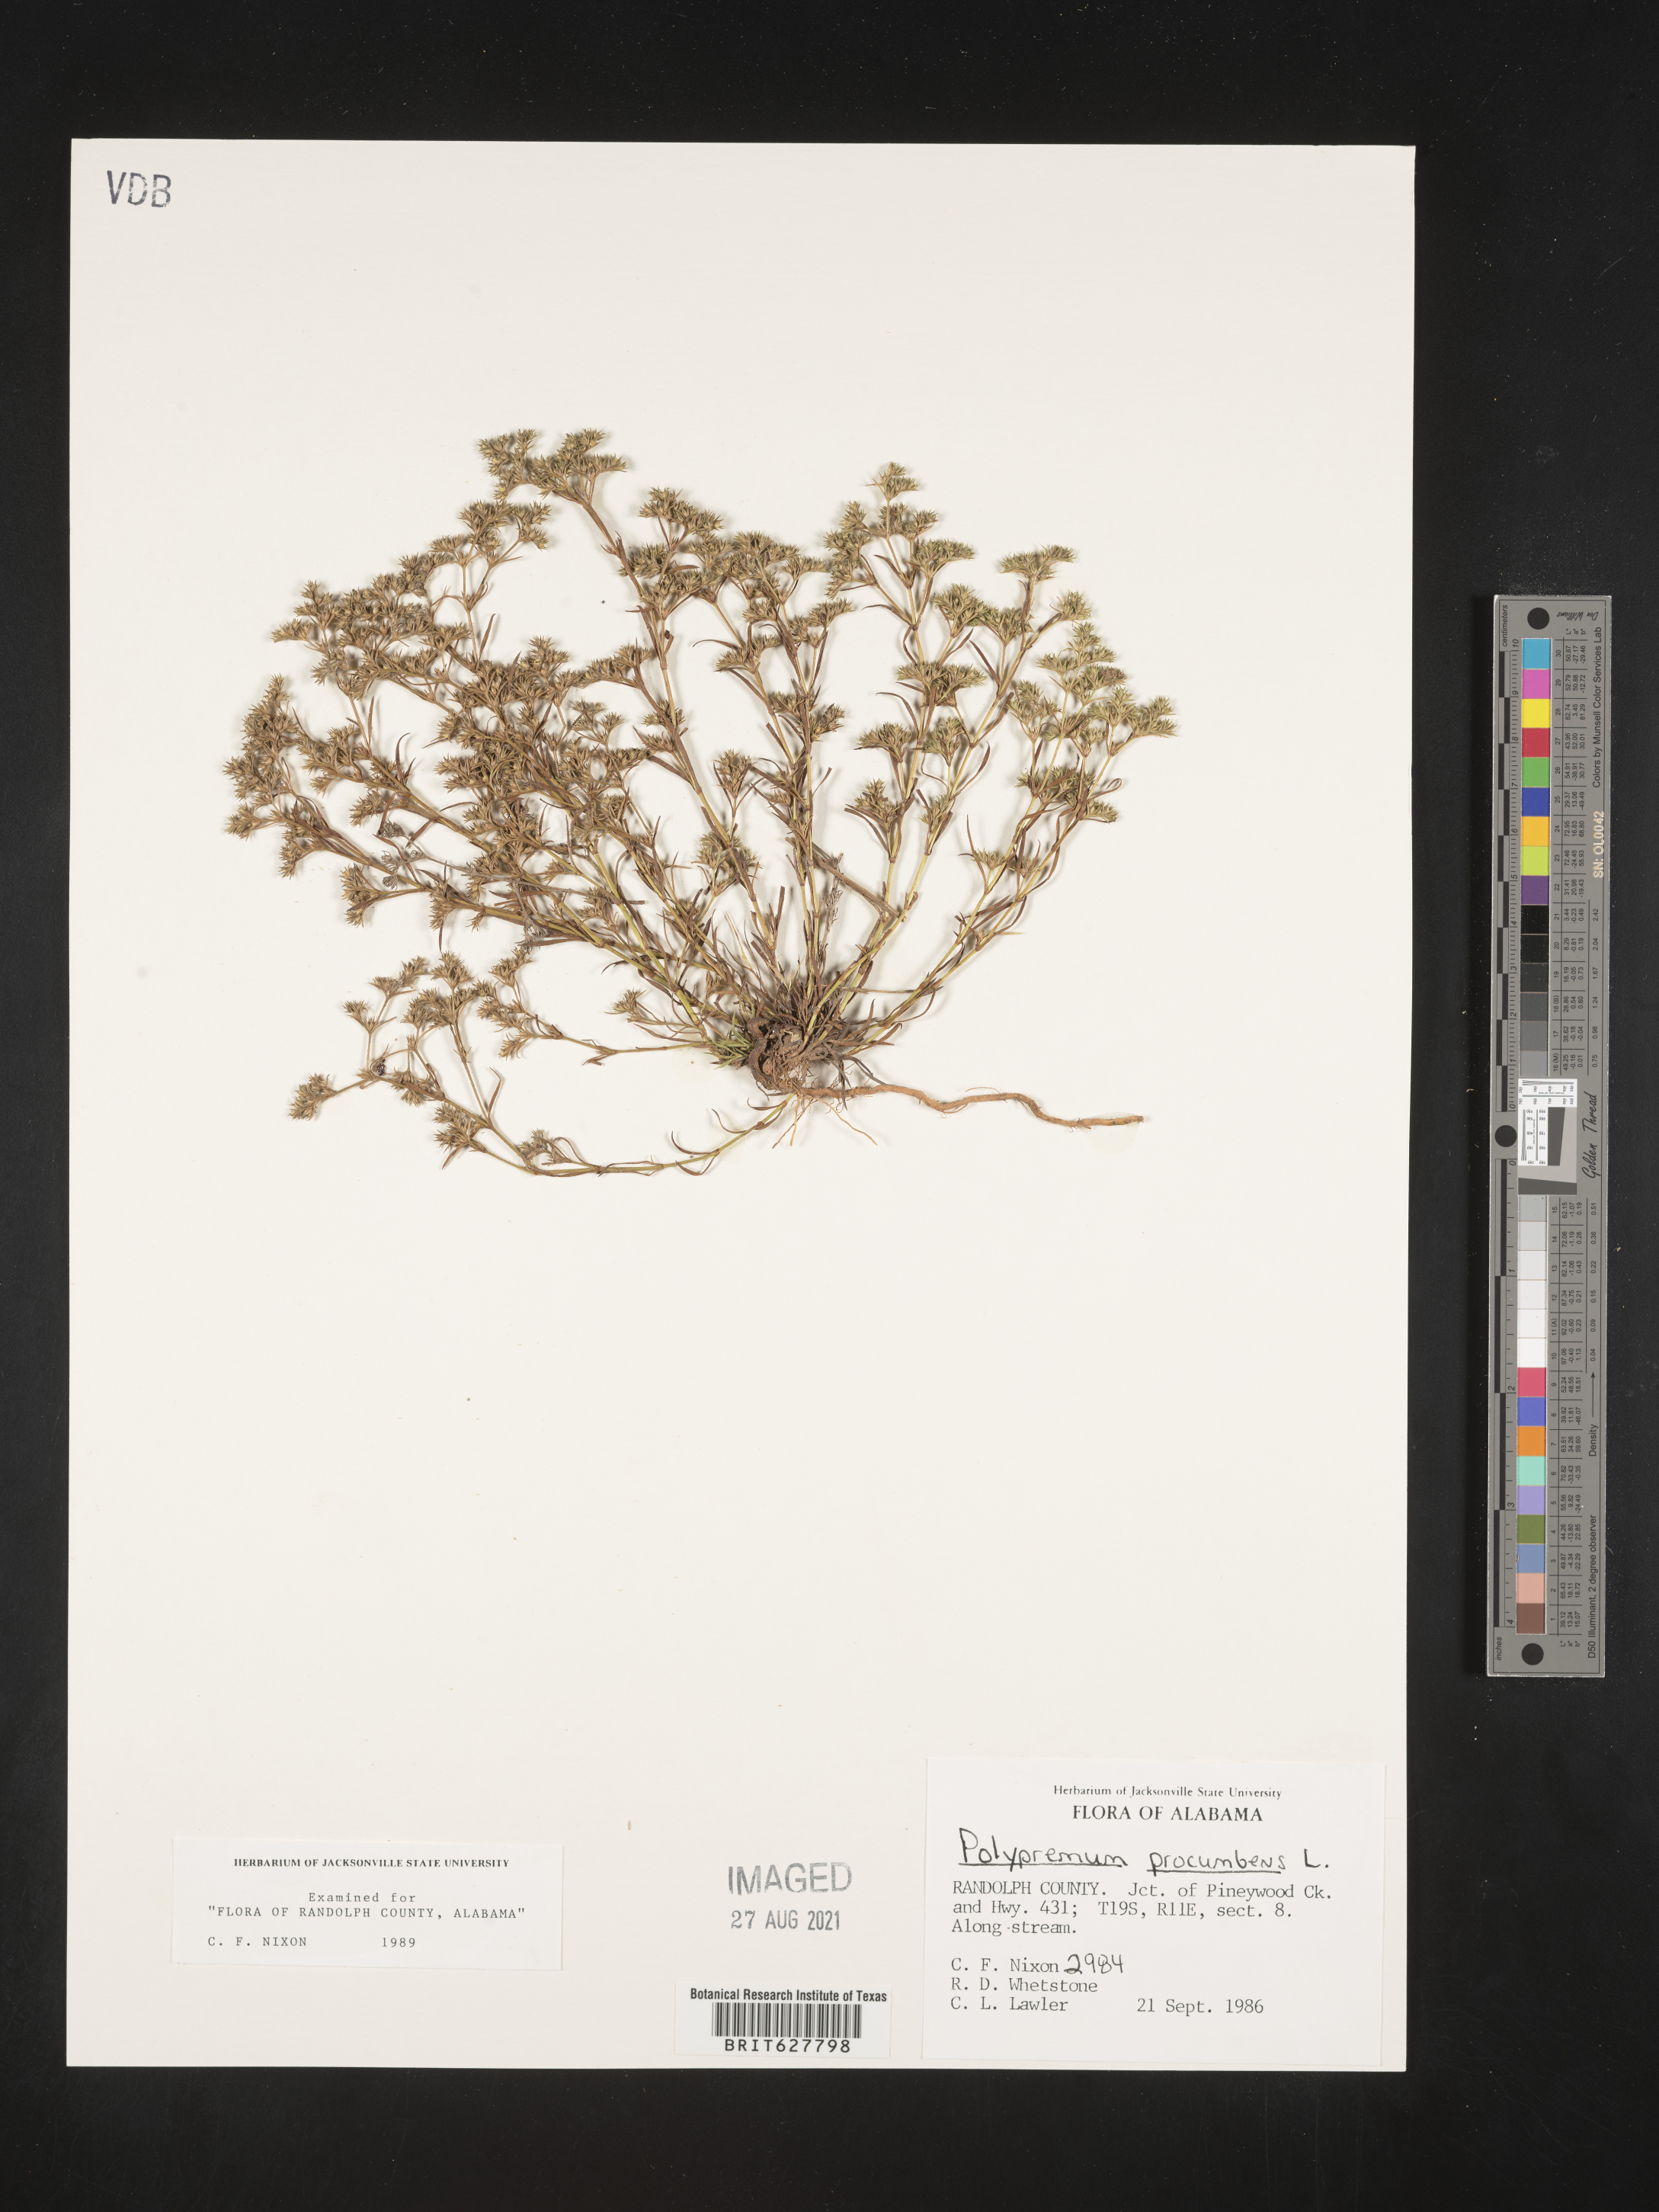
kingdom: Plantae
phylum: Tracheophyta
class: Magnoliopsida
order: Lamiales
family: Tetrachondraceae
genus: Polypremum
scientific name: Polypremum procumbens
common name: Juniper-leaf
